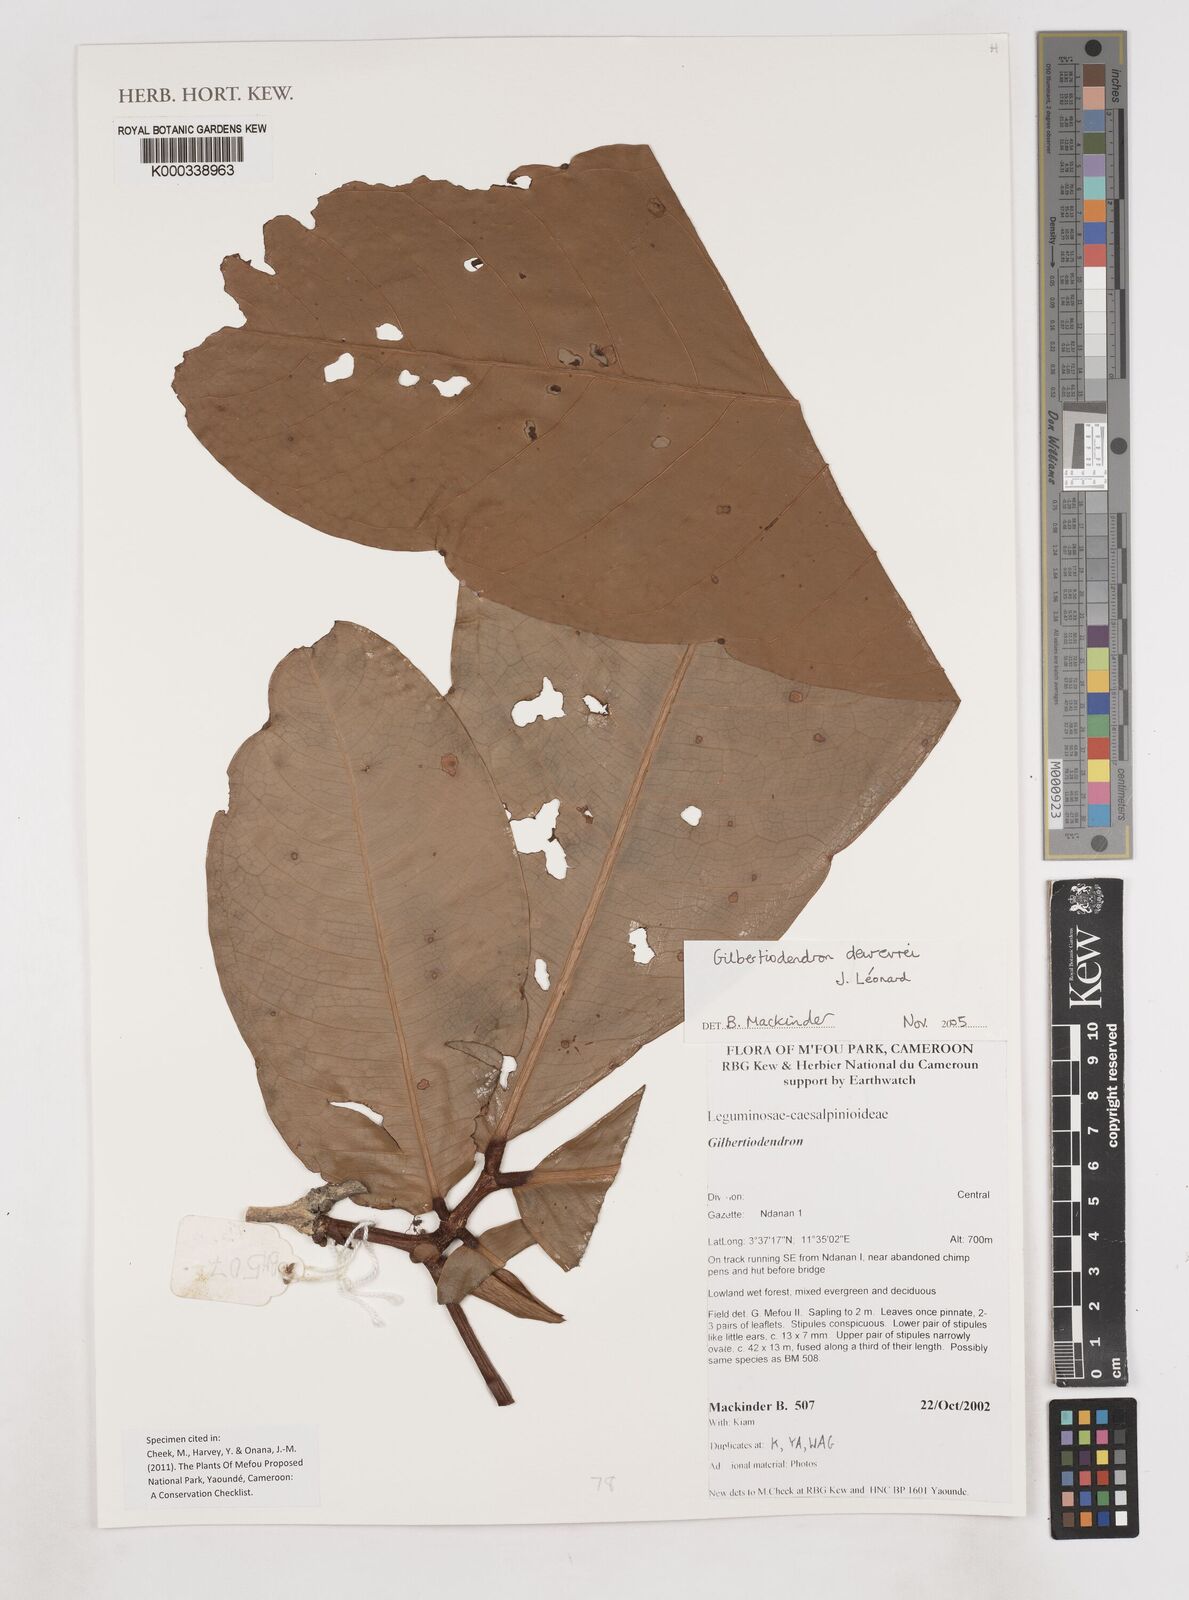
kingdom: Plantae
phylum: Tracheophyta
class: Magnoliopsida
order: Fabales
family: Fabaceae
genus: Gilbertiodendron
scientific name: Gilbertiodendron
